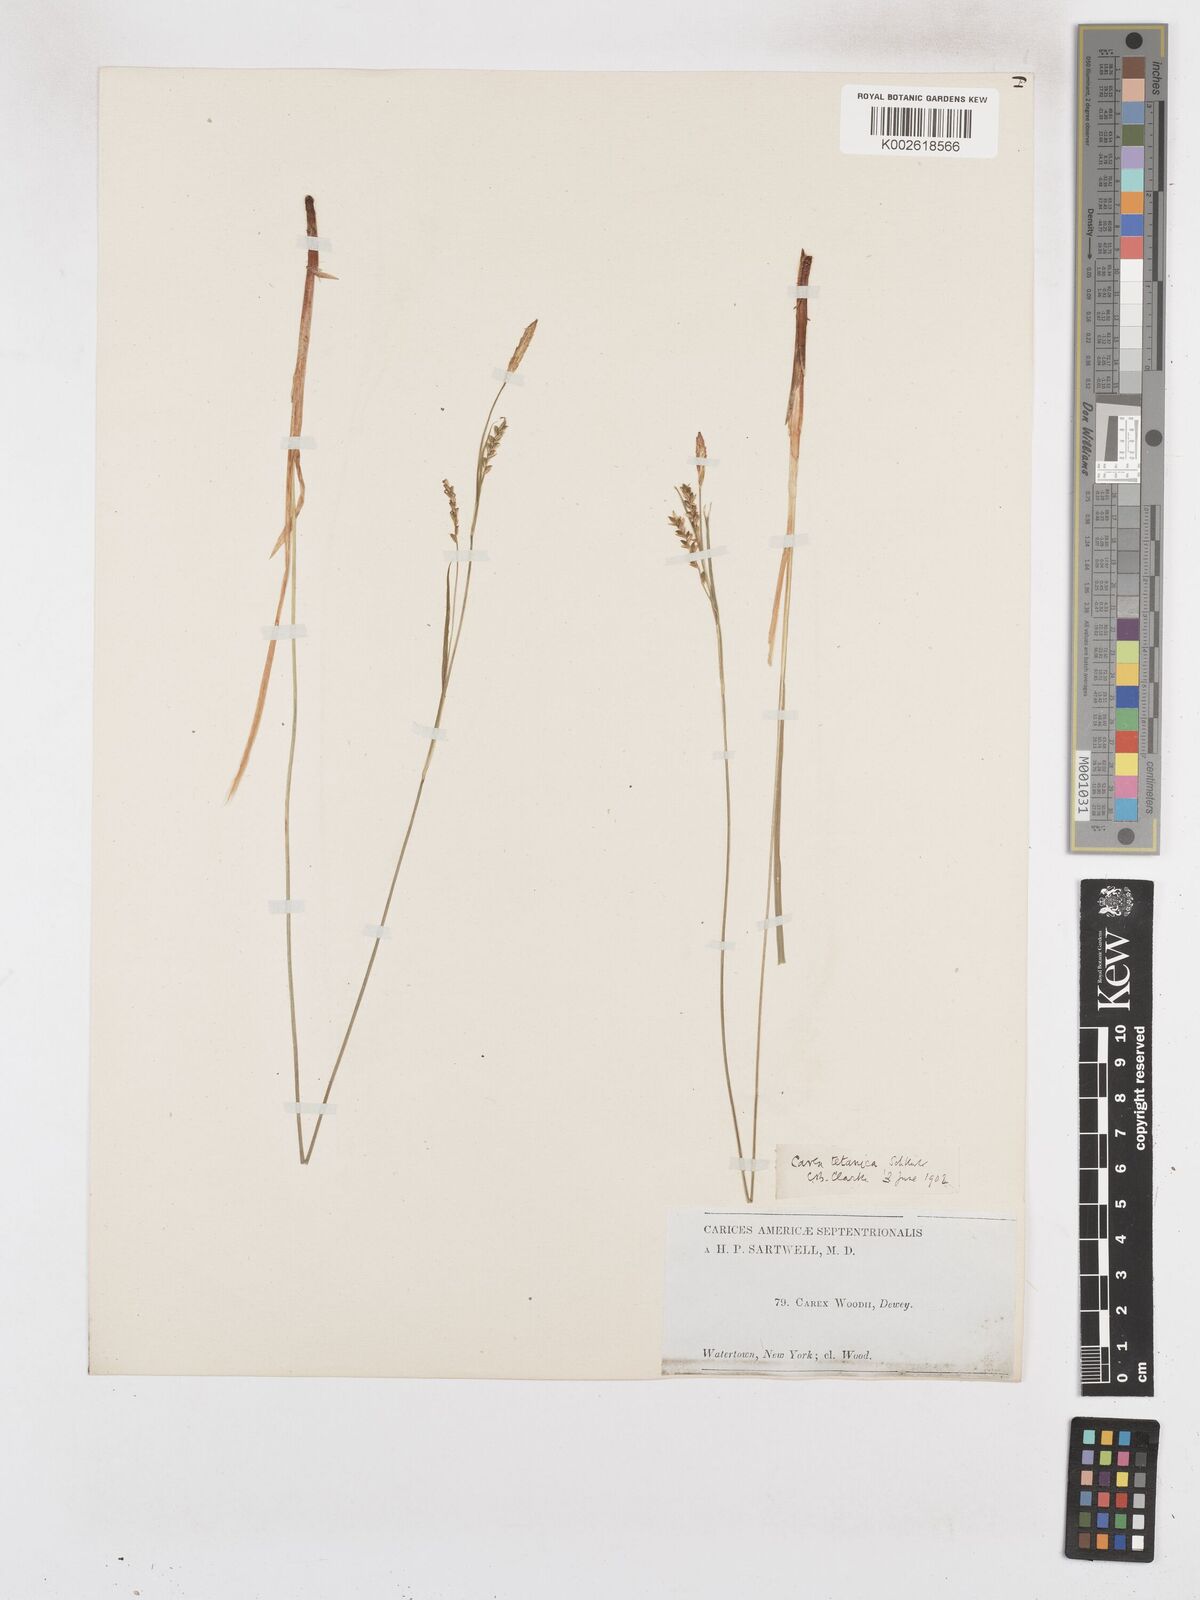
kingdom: Plantae
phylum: Tracheophyta
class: Liliopsida
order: Poales
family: Cyperaceae
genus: Carex
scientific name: Carex woodii
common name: Wood's sedge
